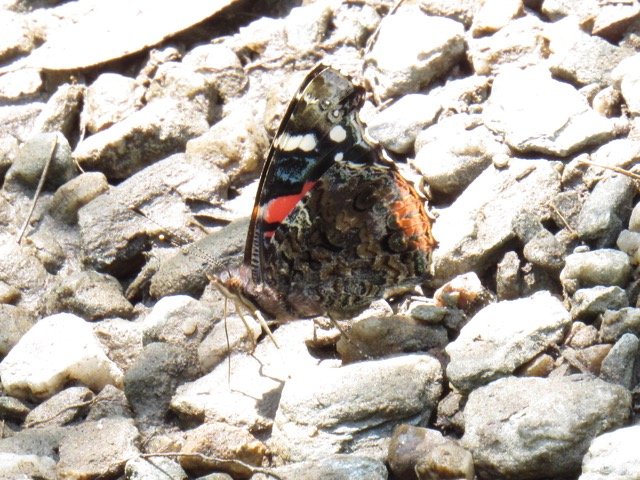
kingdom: Animalia
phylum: Arthropoda
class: Insecta
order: Lepidoptera
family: Nymphalidae
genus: Vanessa
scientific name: Vanessa atalanta
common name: Red Admiral
